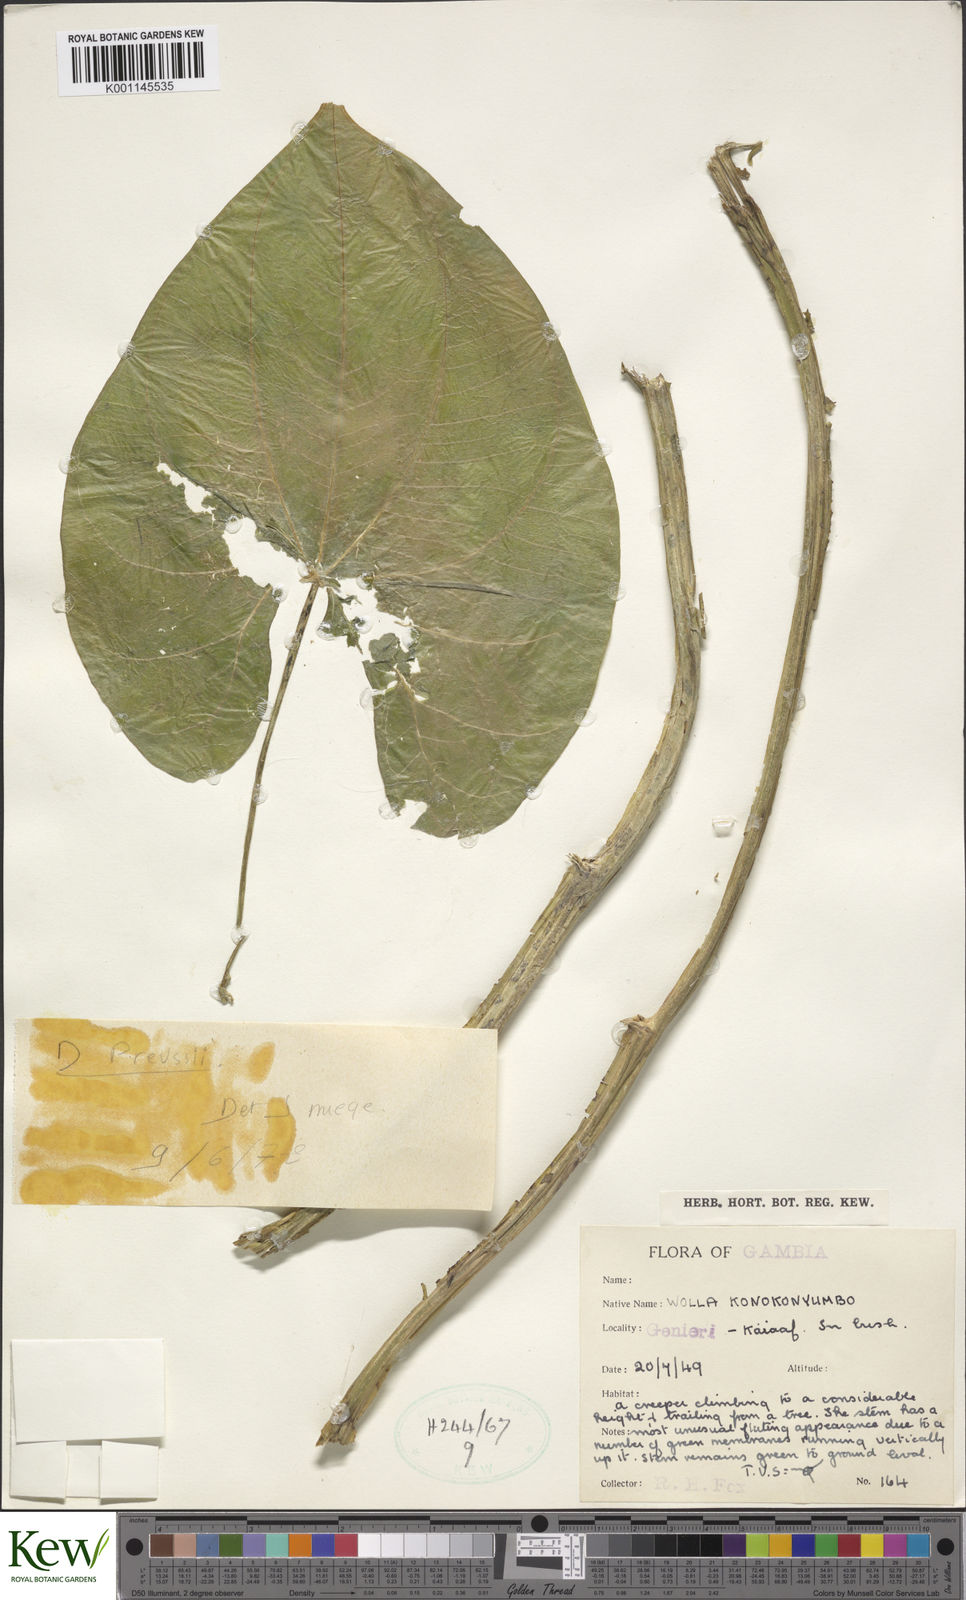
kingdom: Plantae
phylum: Tracheophyta
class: Liliopsida
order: Dioscoreales
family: Dioscoreaceae
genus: Dioscorea
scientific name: Dioscorea preussii
